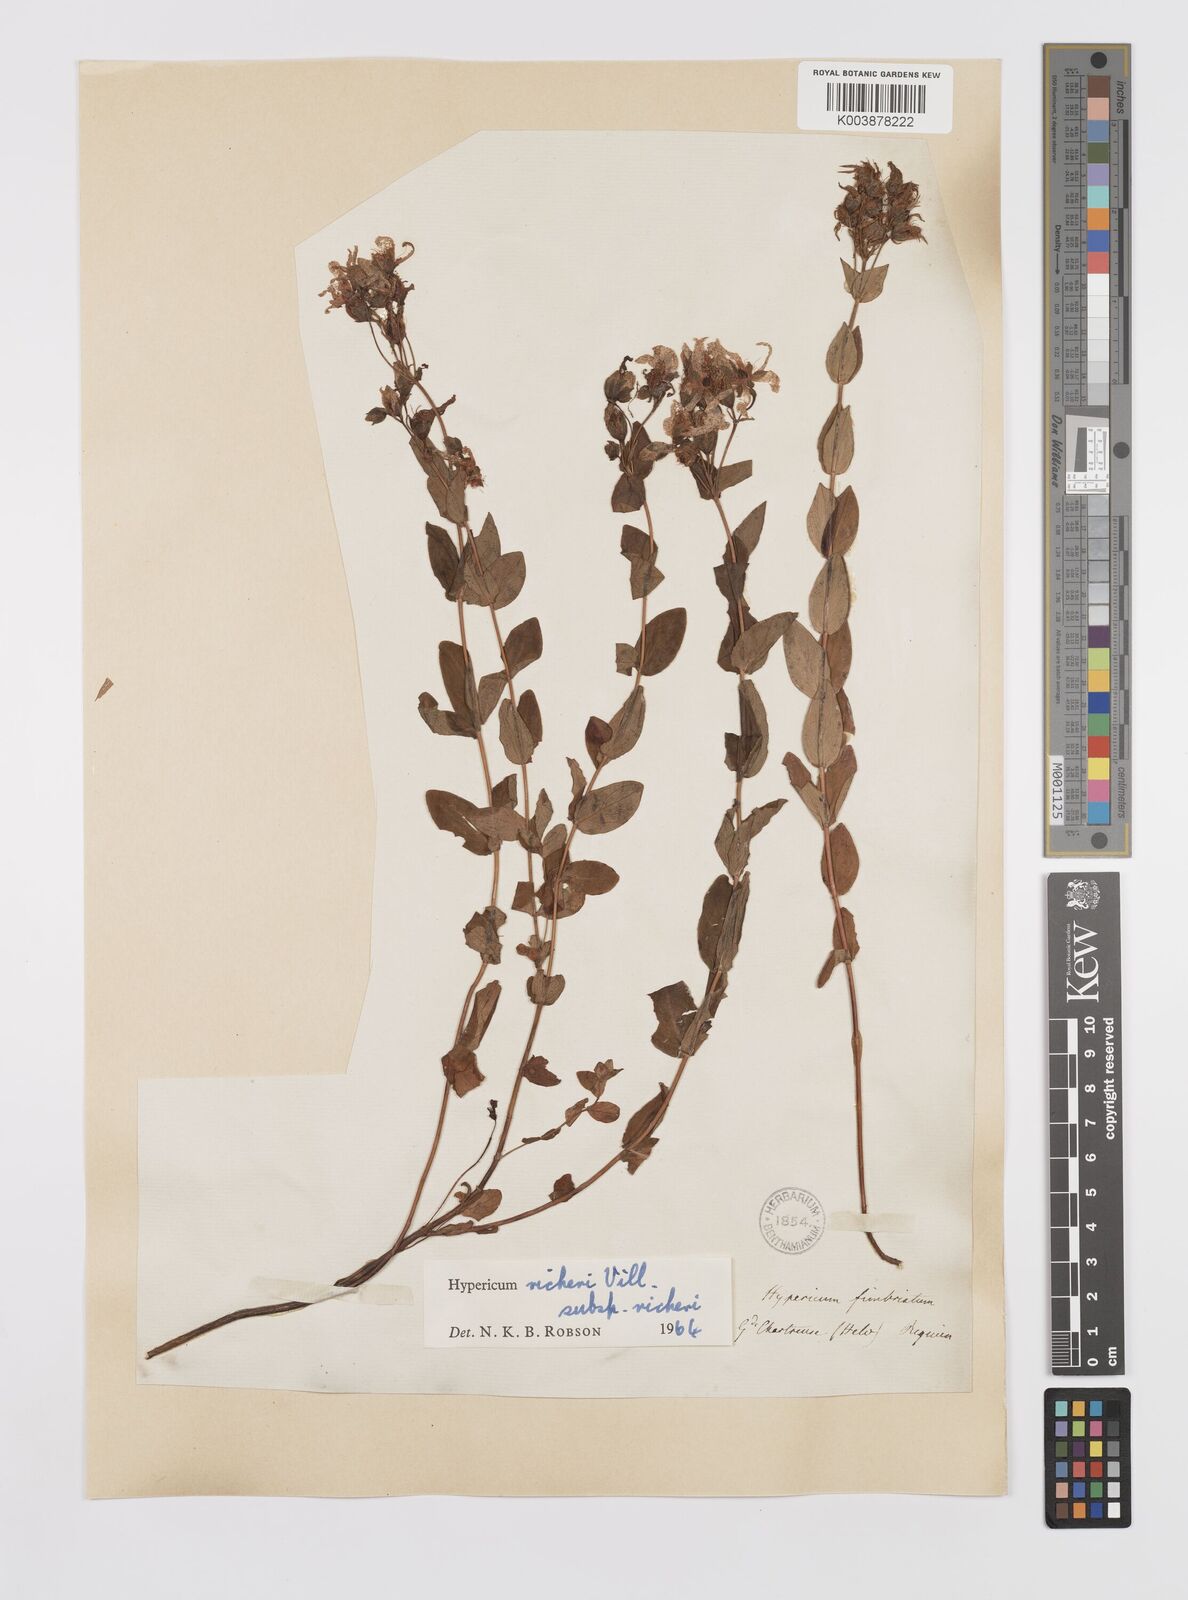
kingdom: Plantae
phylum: Tracheophyta
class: Magnoliopsida
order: Malpighiales
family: Hypericaceae
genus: Hypericum
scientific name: Hypericum richeri
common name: Alpine st john's-wort
